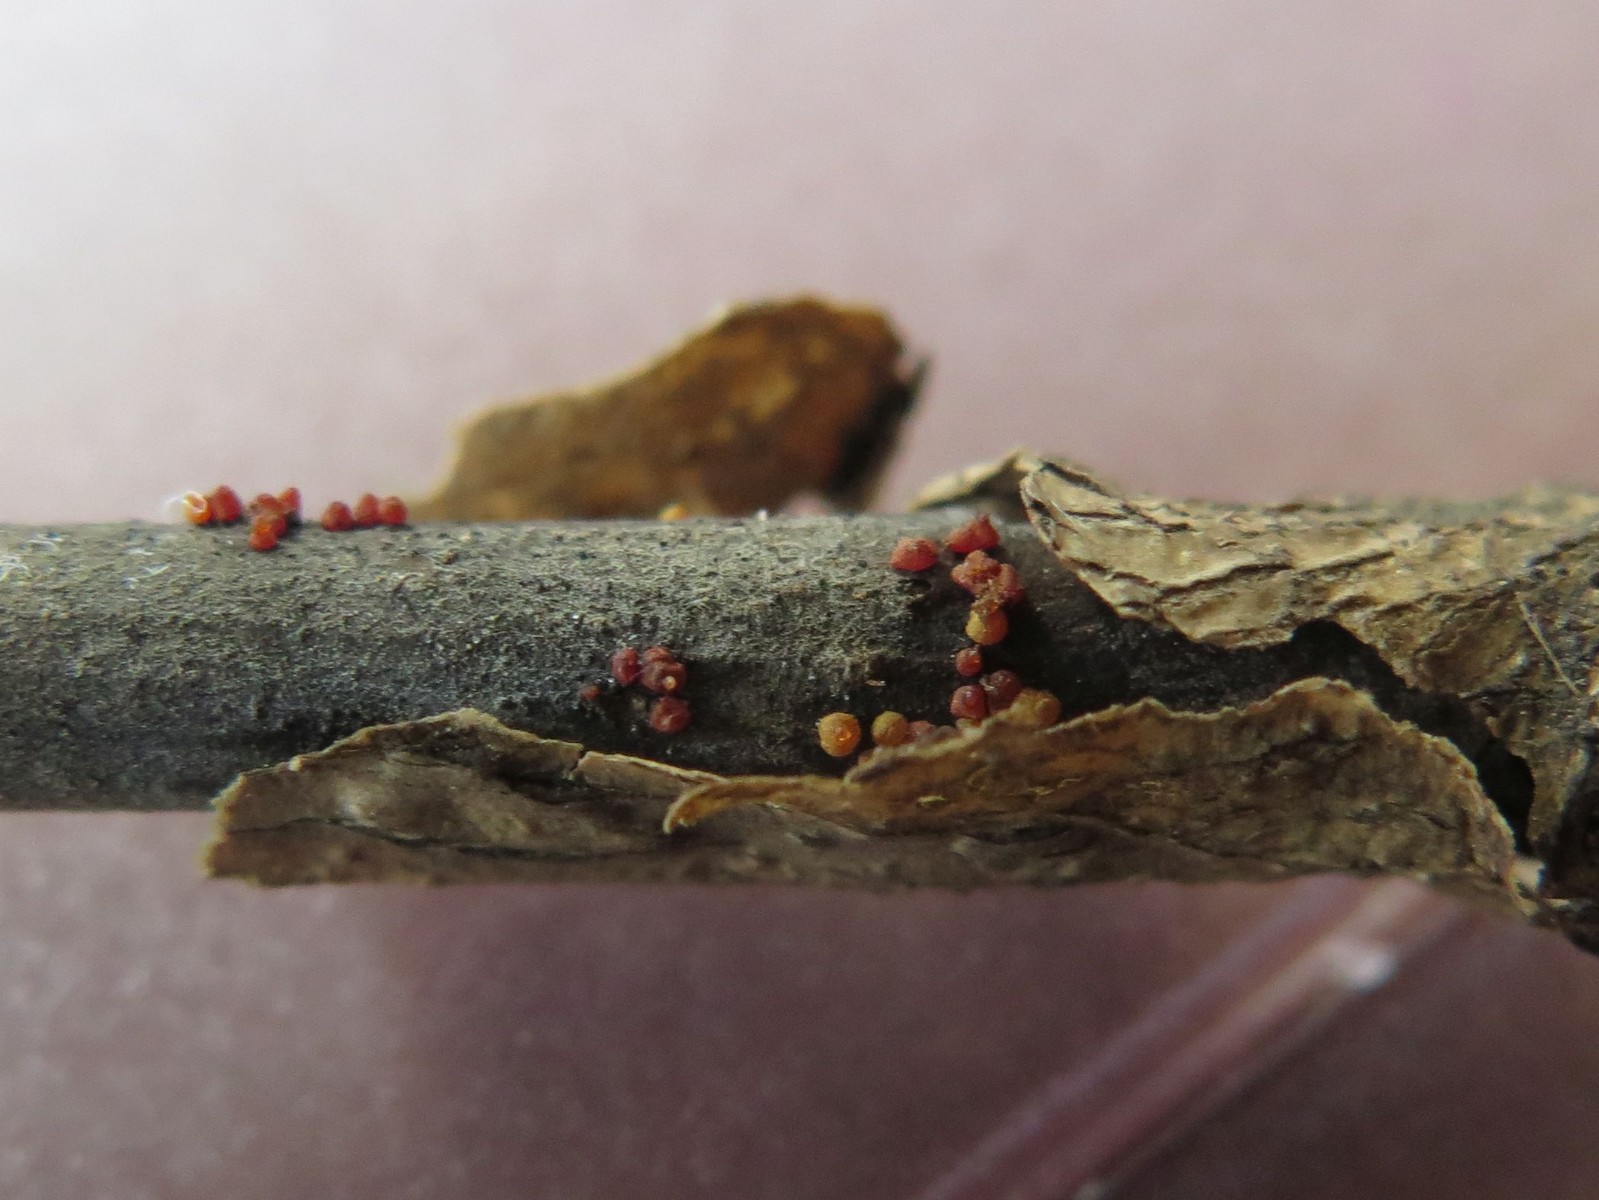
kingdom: Fungi
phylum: Ascomycota
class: Sordariomycetes
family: Thyridiaceae
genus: Thyronectria
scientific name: Thyronectria sinopica
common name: vedbend-cinnobersvamp
